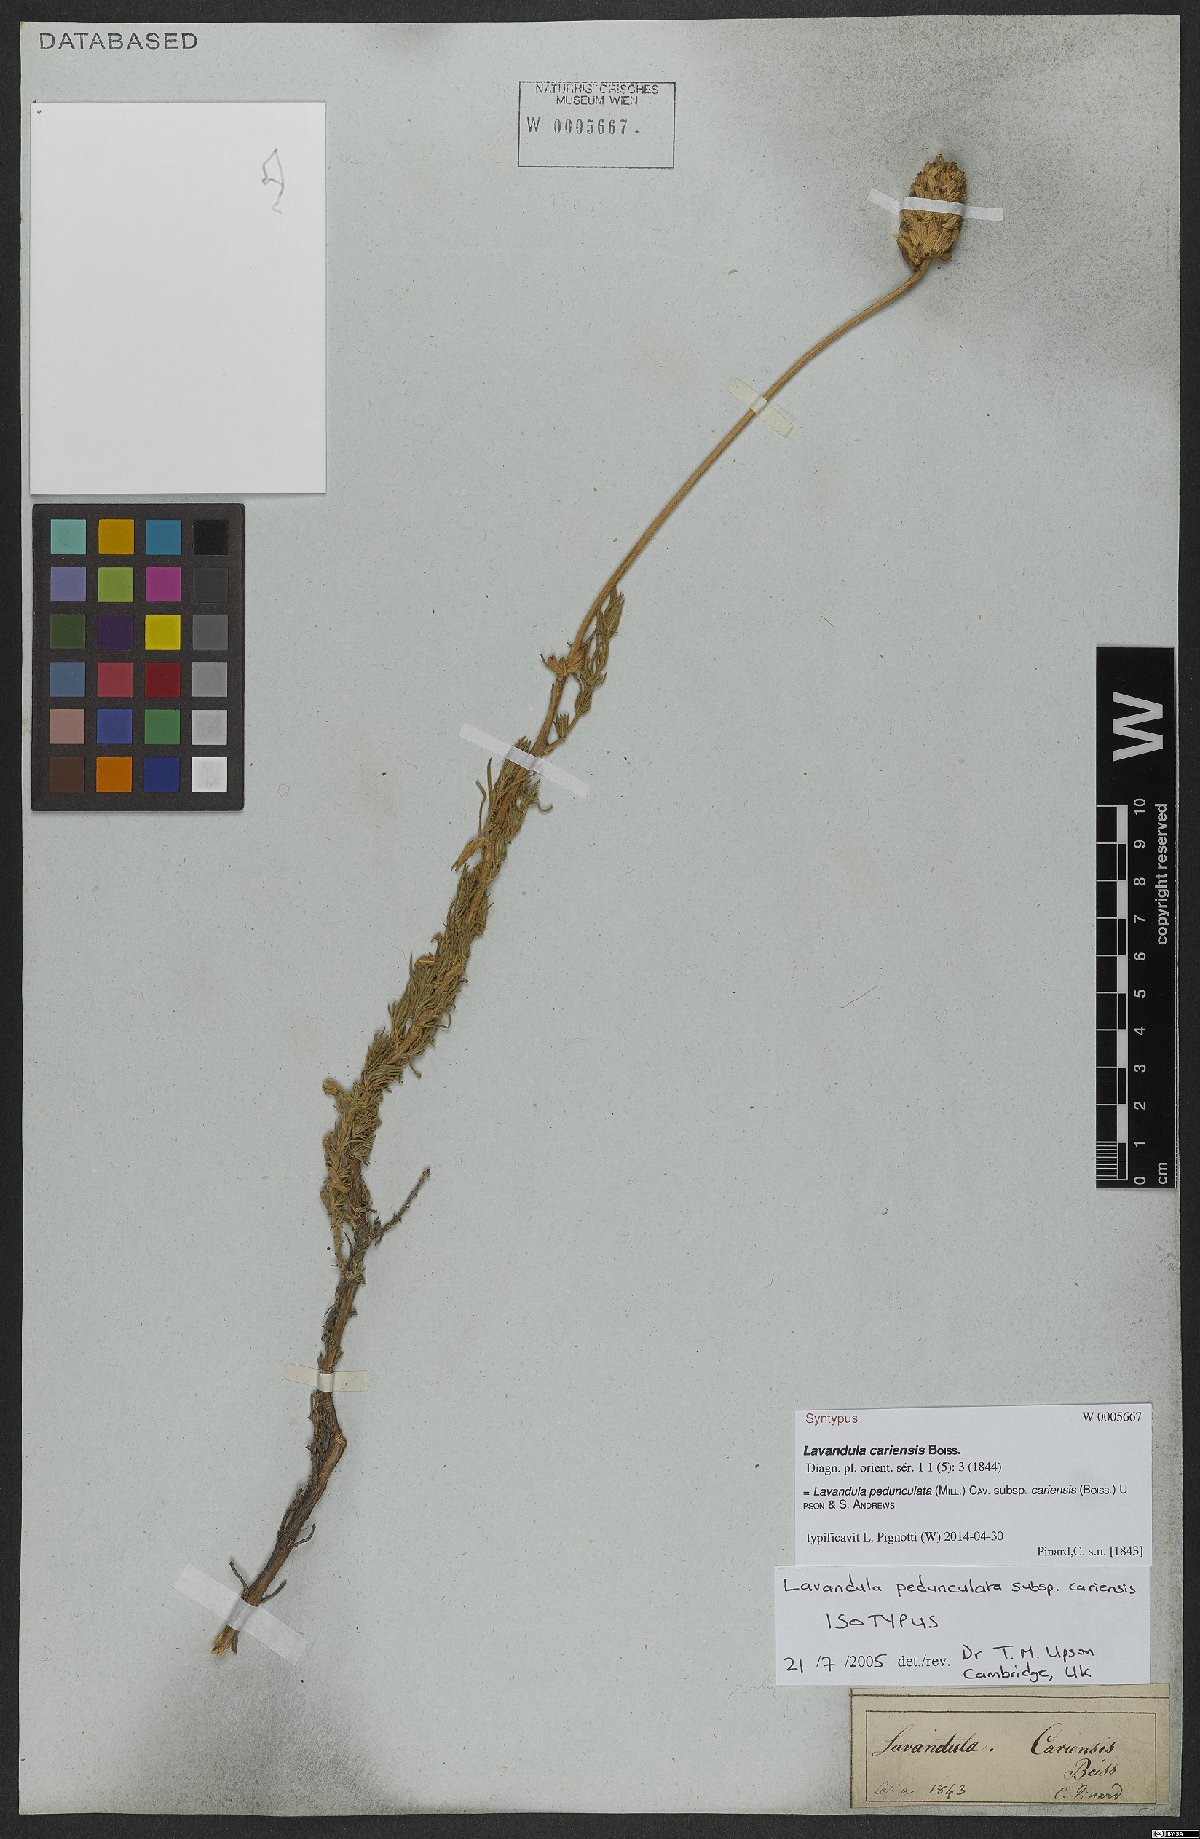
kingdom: Plantae
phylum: Tracheophyta
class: Magnoliopsida
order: Lamiales
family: Lamiaceae
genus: Lavandula
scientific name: Lavandula pedunculata
